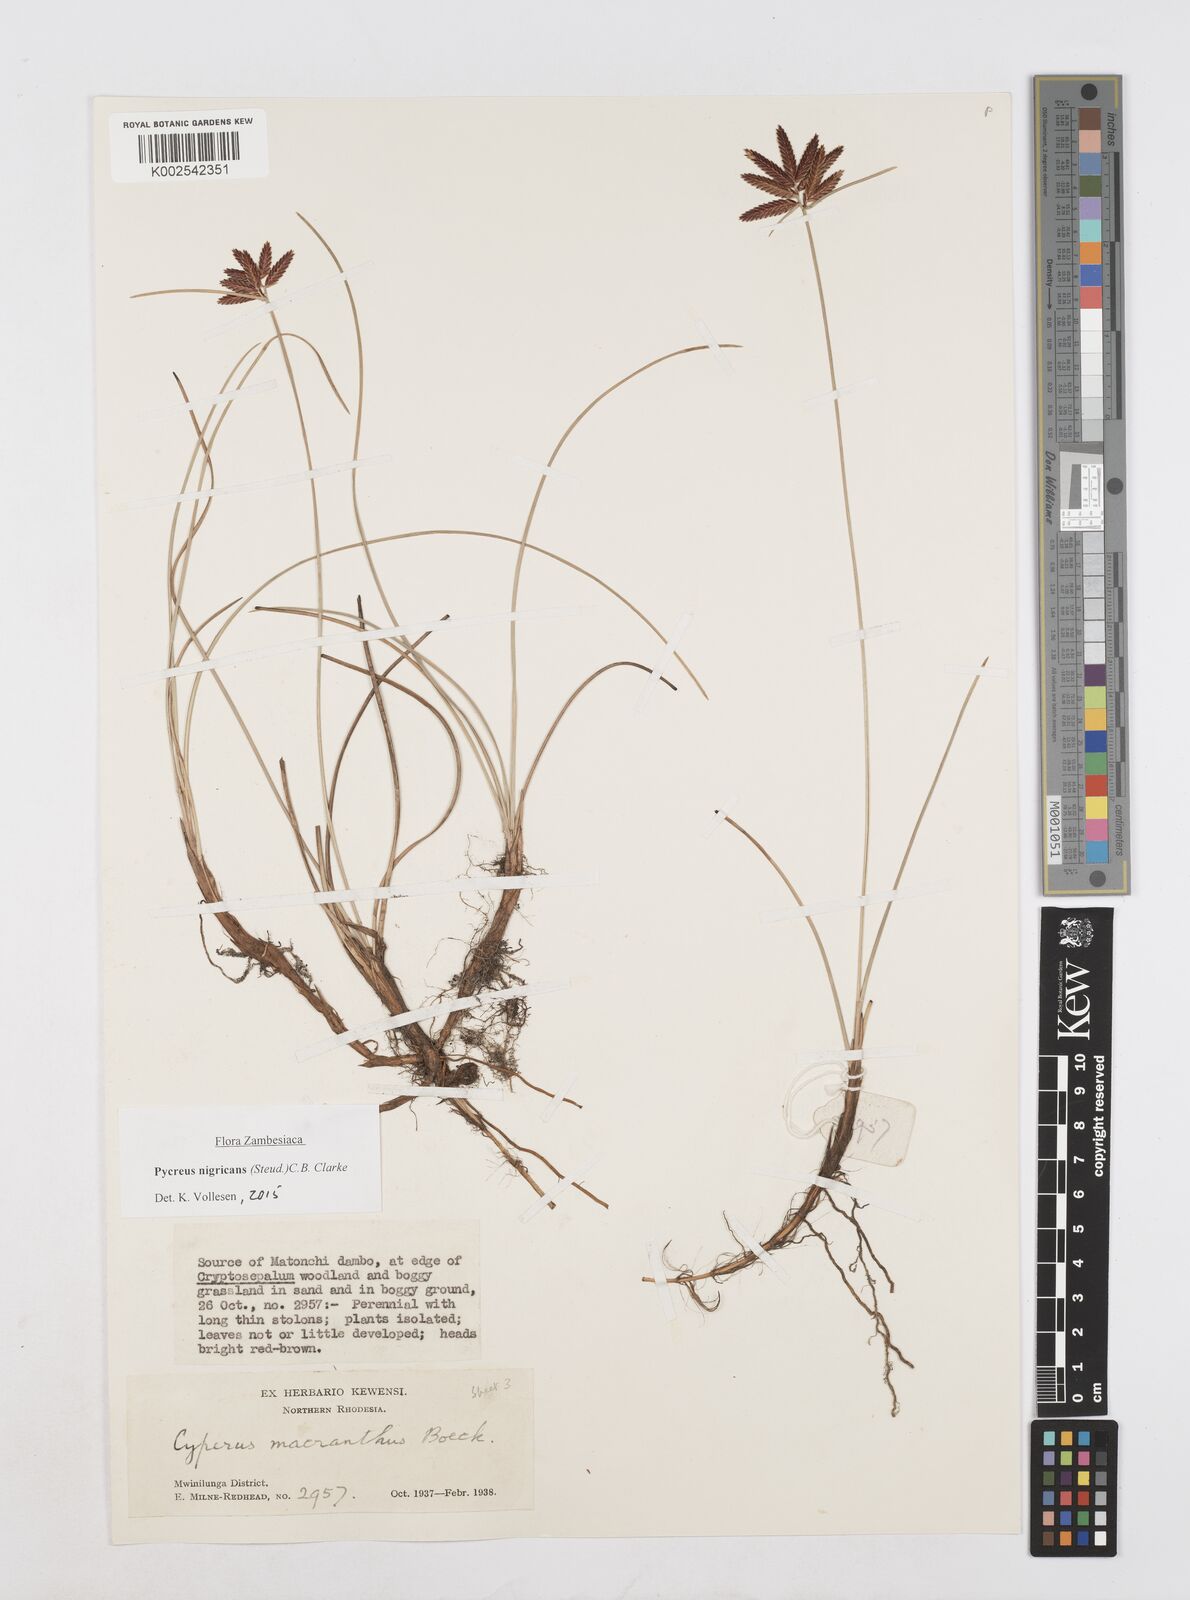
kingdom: Plantae
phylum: Tracheophyta
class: Liliopsida
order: Poales
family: Cyperaceae
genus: Cyperus
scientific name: Cyperus nigricans
